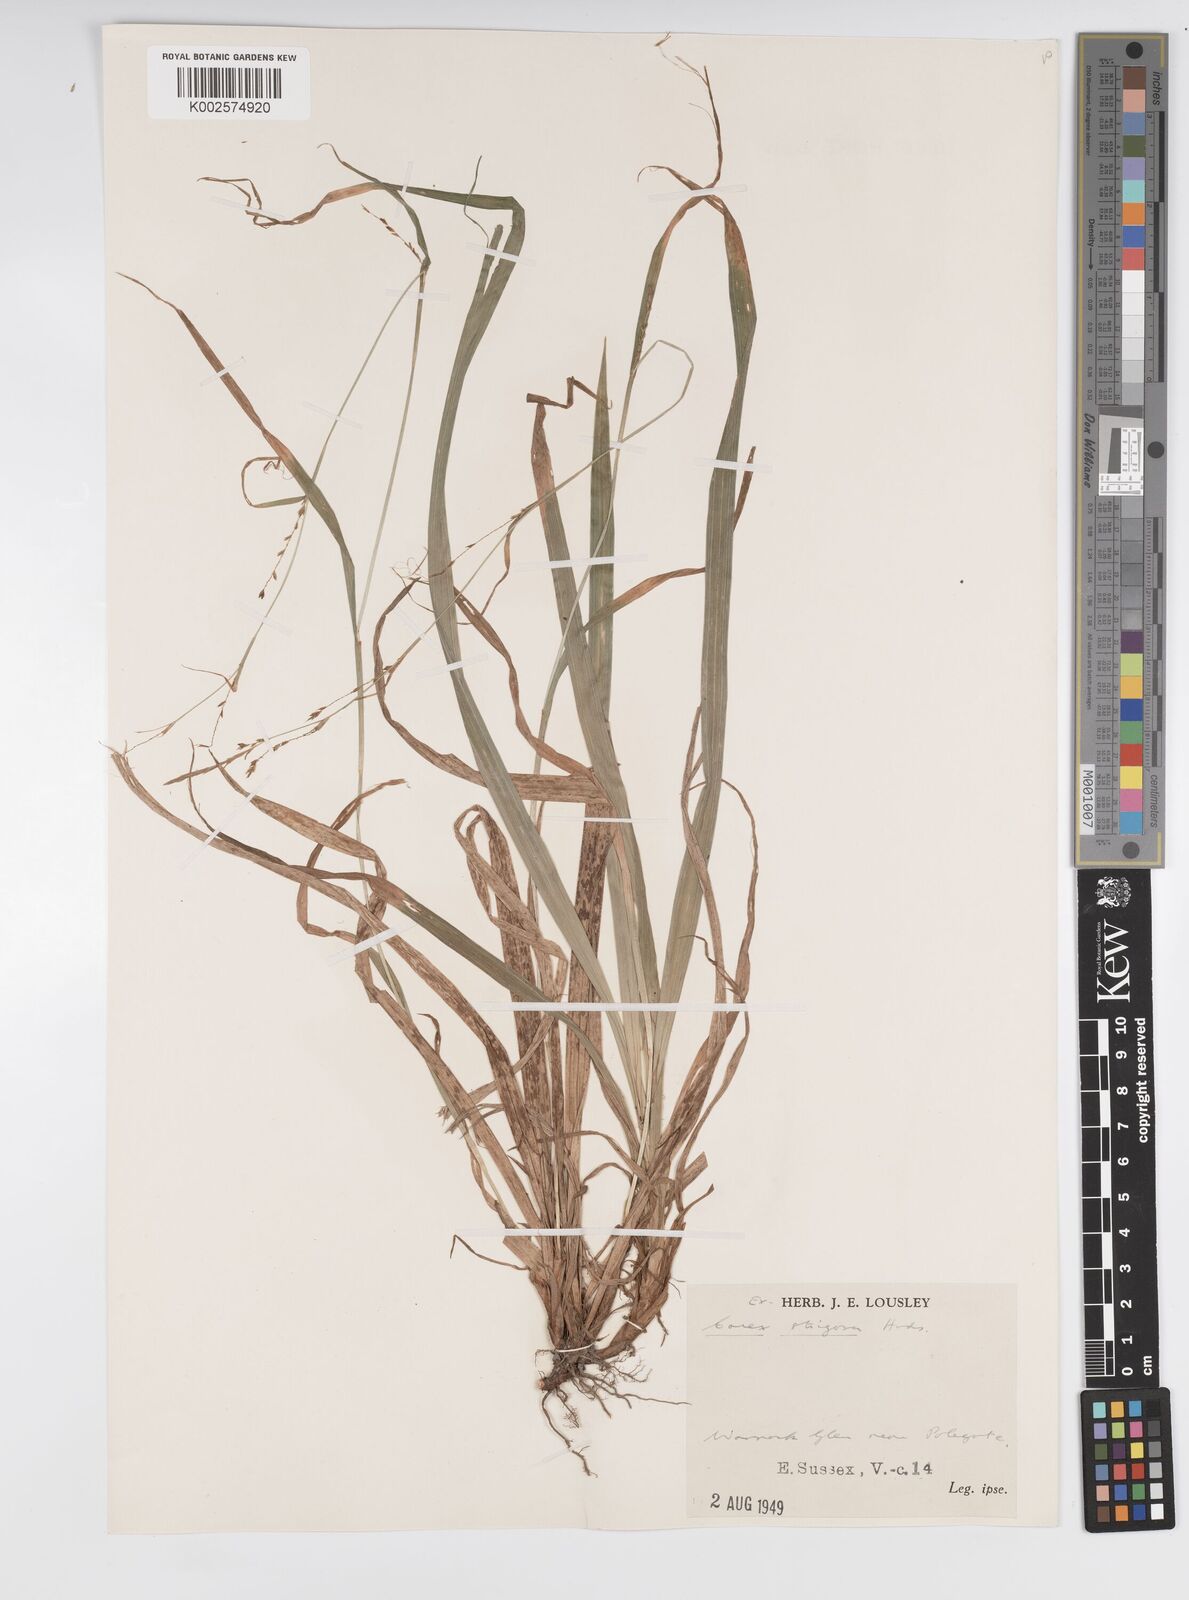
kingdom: Plantae
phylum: Tracheophyta
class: Liliopsida
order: Poales
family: Cyperaceae
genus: Carex
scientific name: Carex strigosa
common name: Thin-spiked wood-sedge
